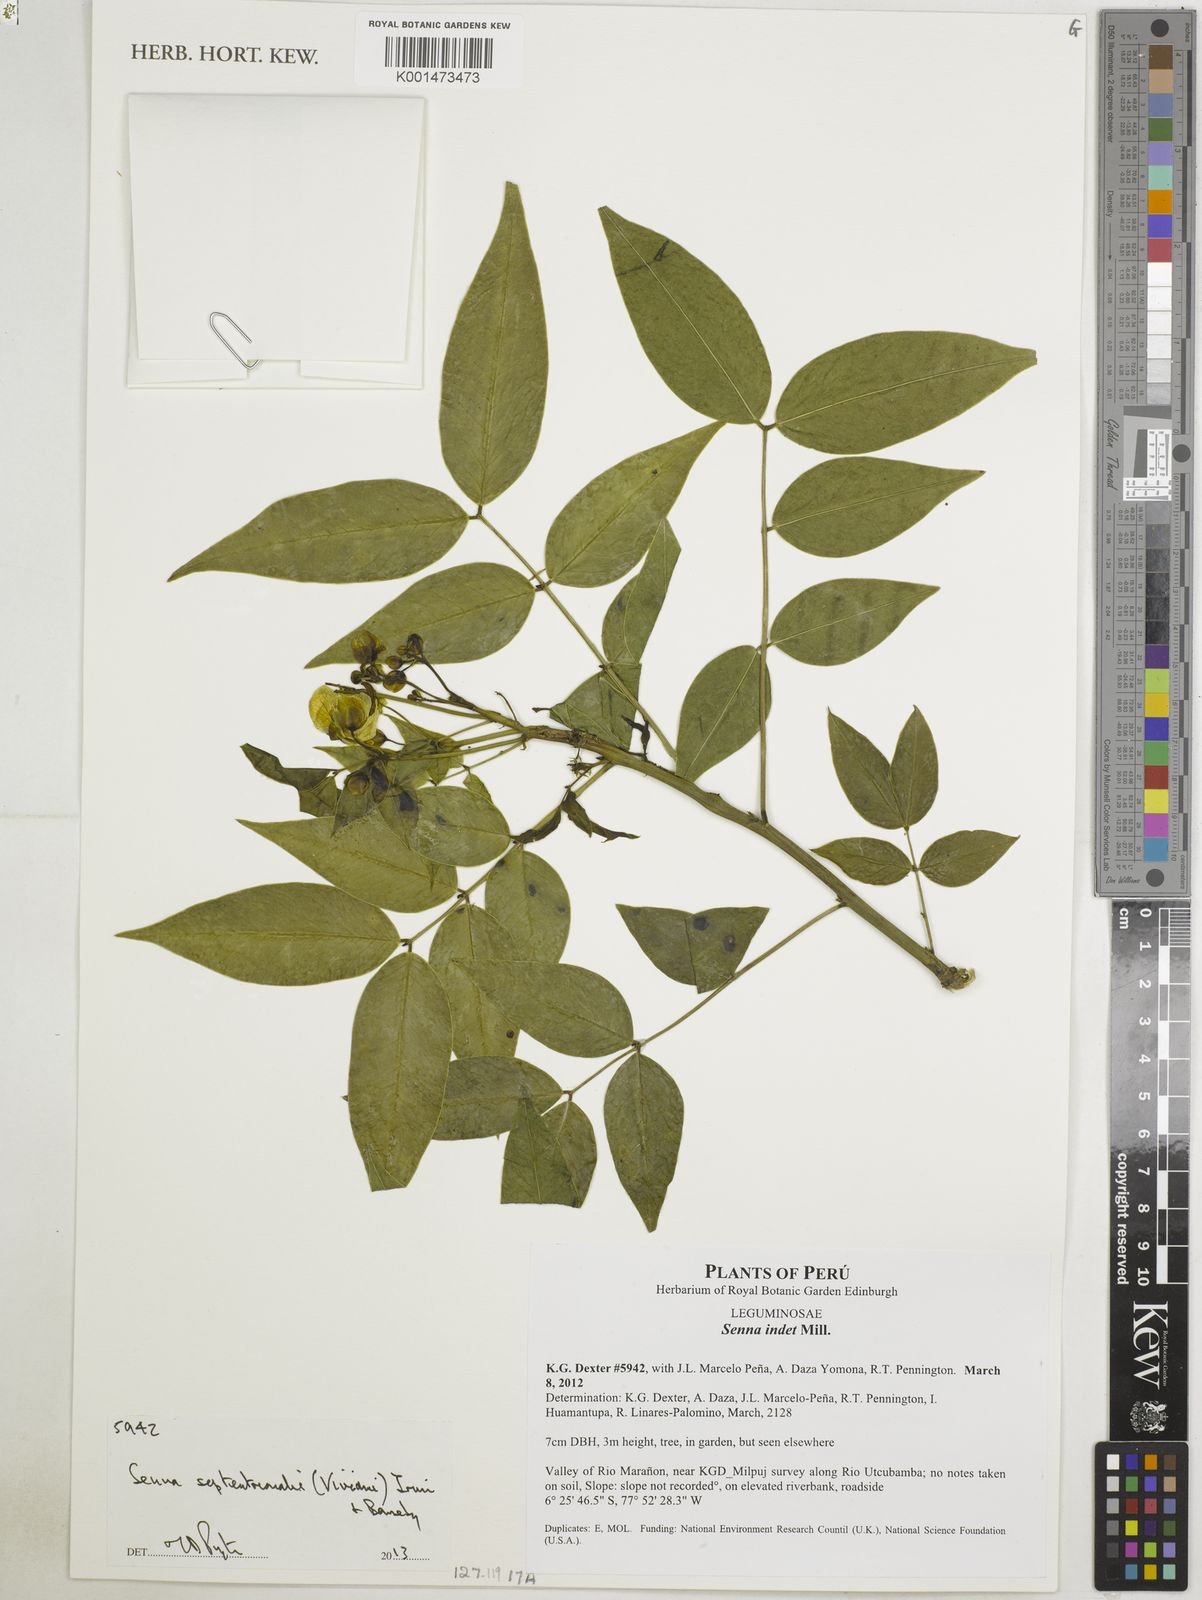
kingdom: Plantae
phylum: Tracheophyta
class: Magnoliopsida
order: Fabales
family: Fabaceae
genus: Senna
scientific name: Senna septemtrionalis
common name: Arsenic bush
